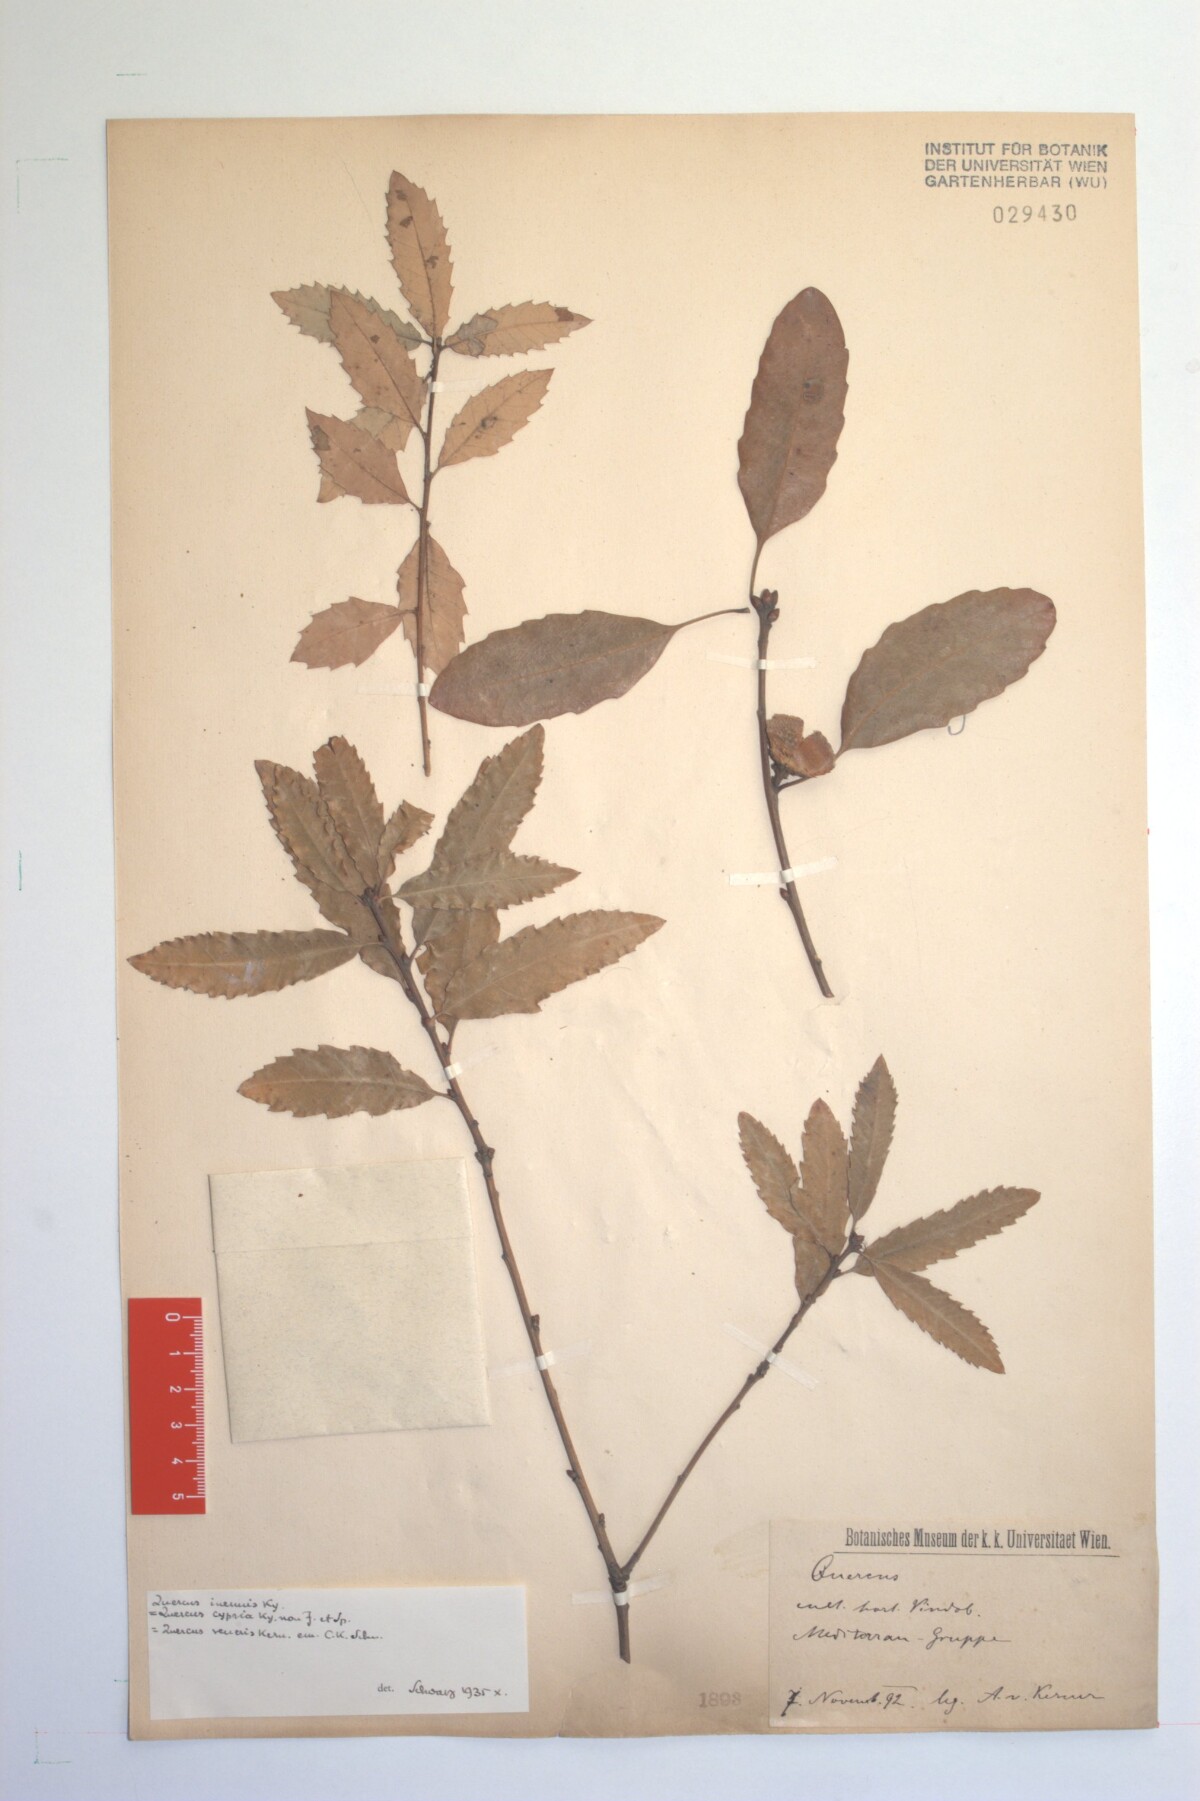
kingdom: Plantae
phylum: Tracheophyta
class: Magnoliopsida
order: Fagales
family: Fagaceae
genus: Quercus
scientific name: Quercus infectoria
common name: Aleppo oak
